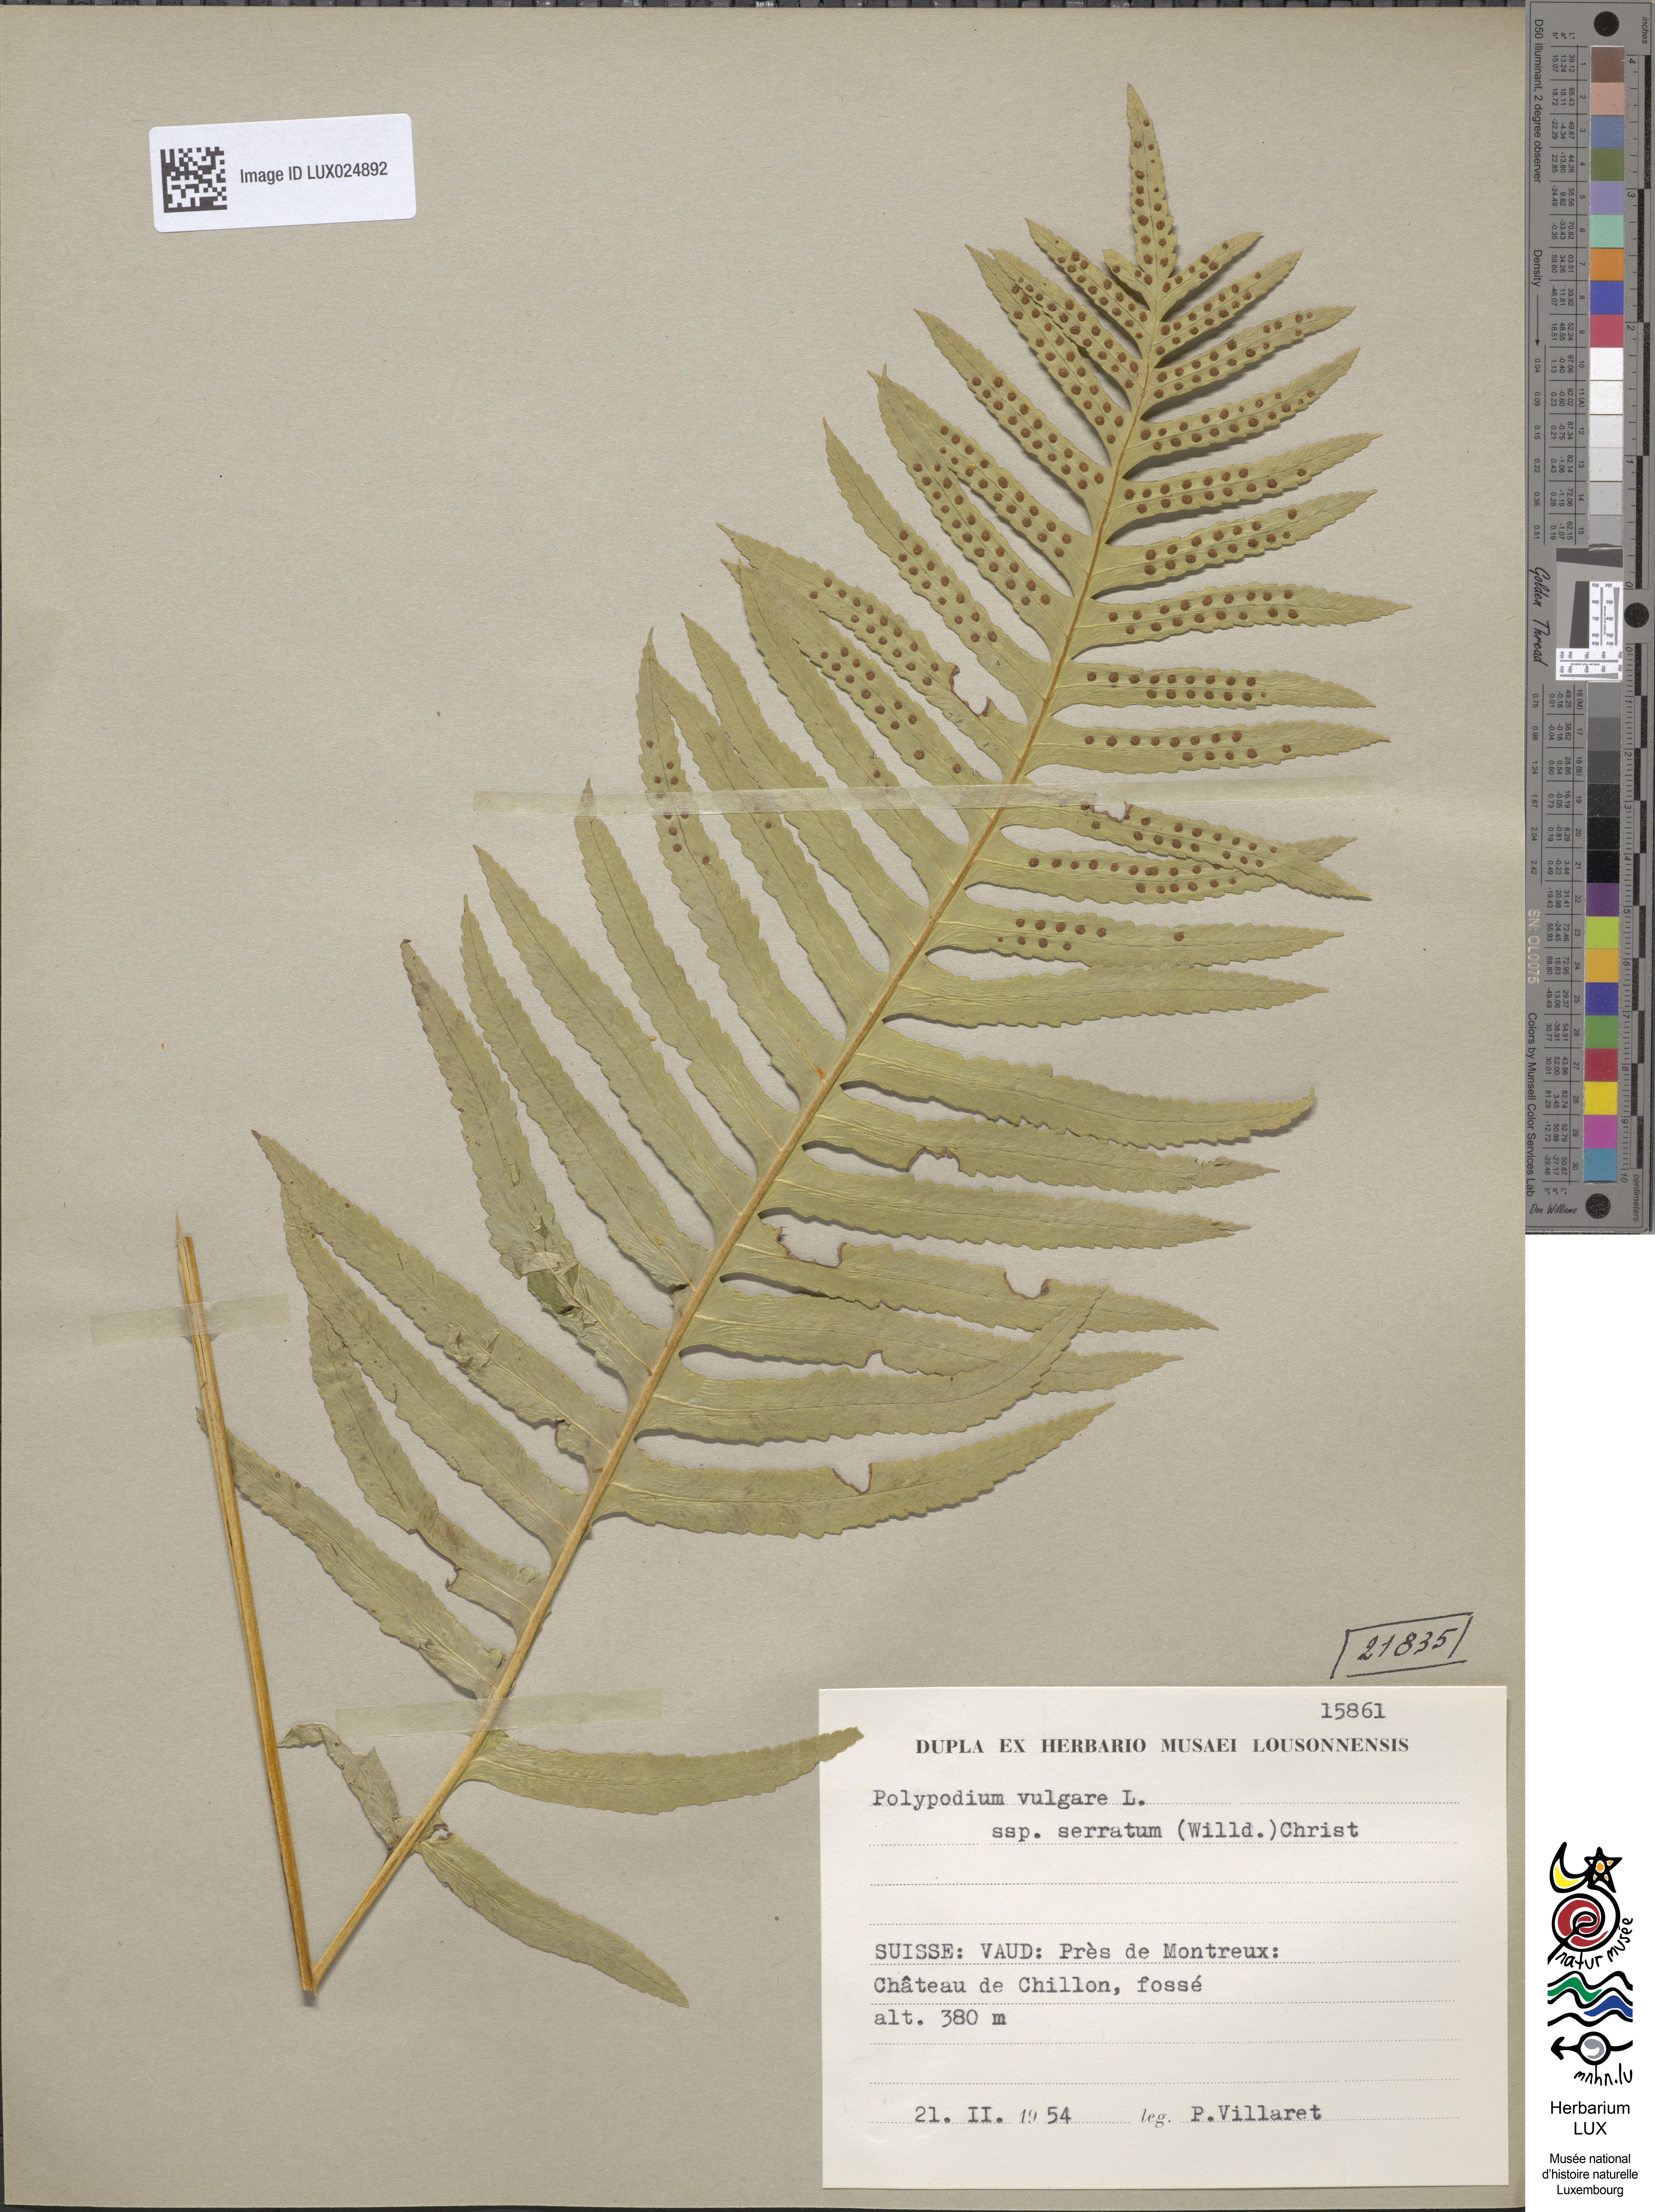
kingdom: Plantae
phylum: Tracheophyta
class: Polypodiopsida
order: Polypodiales
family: Polypodiaceae
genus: Polypodium
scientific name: Polypodium cambricum
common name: Southern polypody
